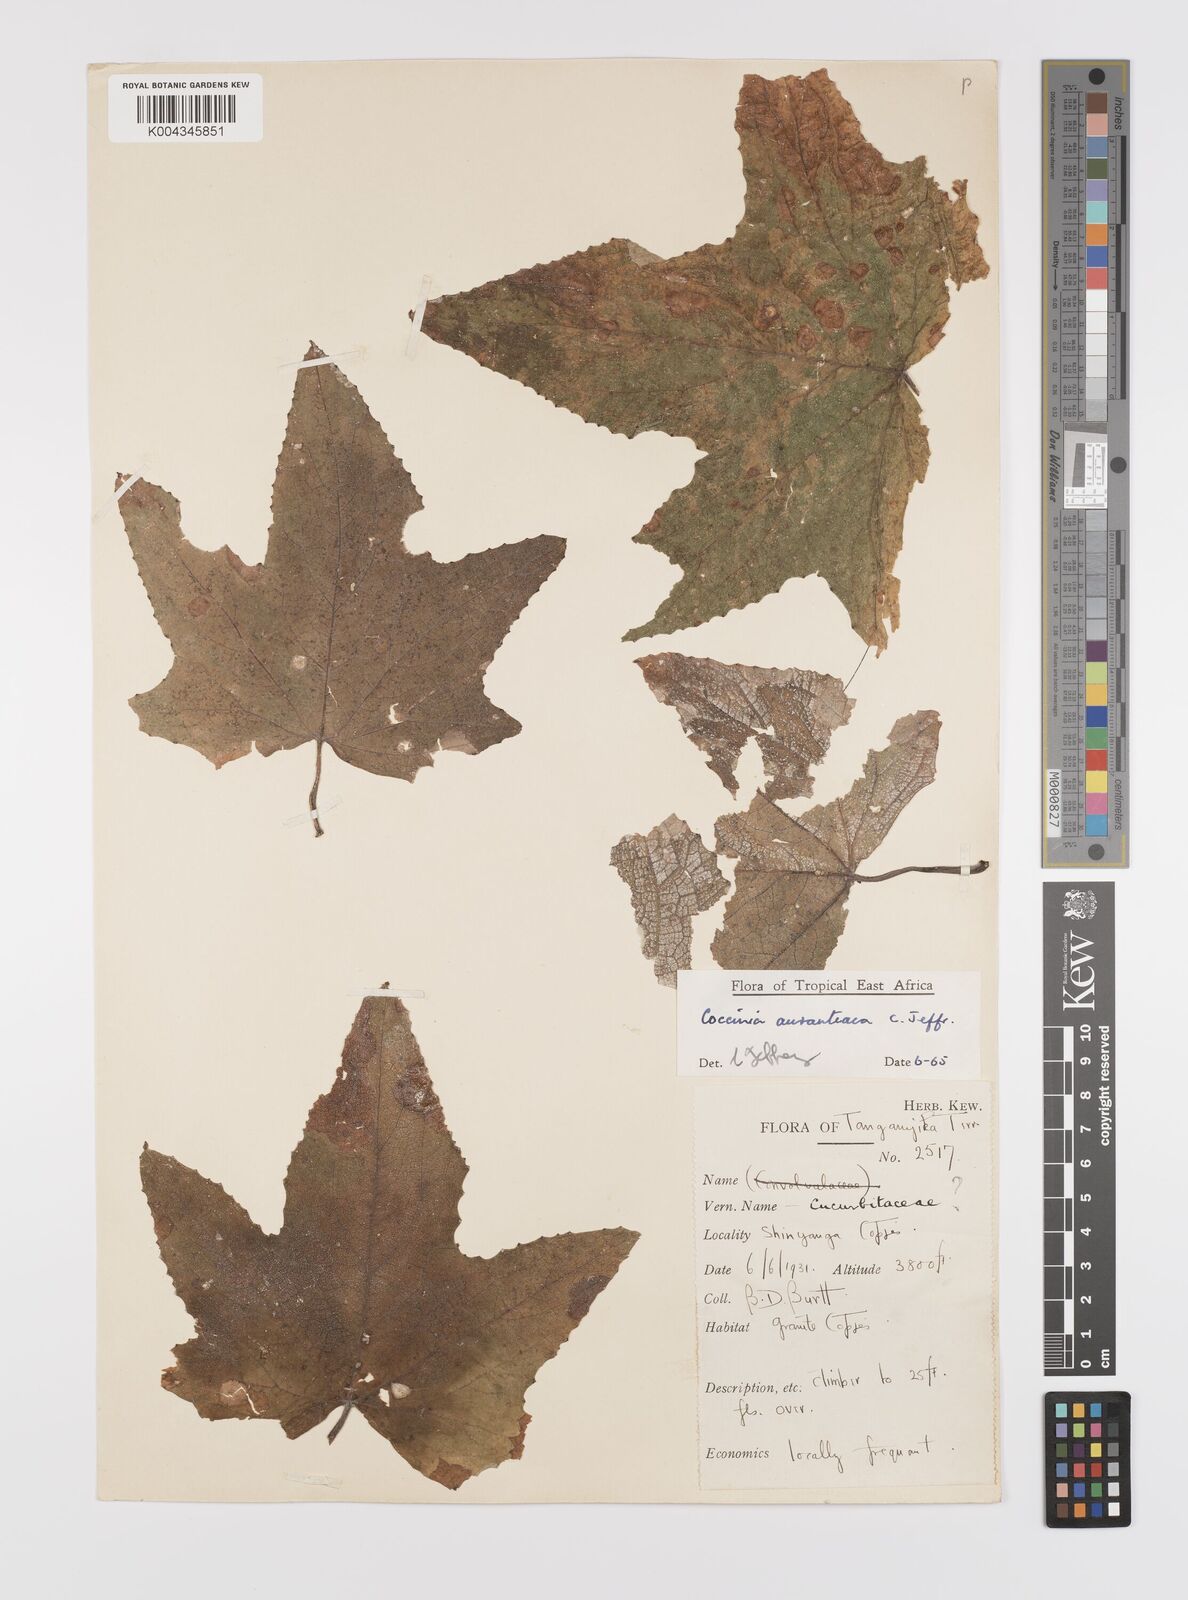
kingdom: Plantae
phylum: Tracheophyta
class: Magnoliopsida
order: Cucurbitales
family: Cucurbitaceae
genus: Coccinia
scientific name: Coccinia adoensis
